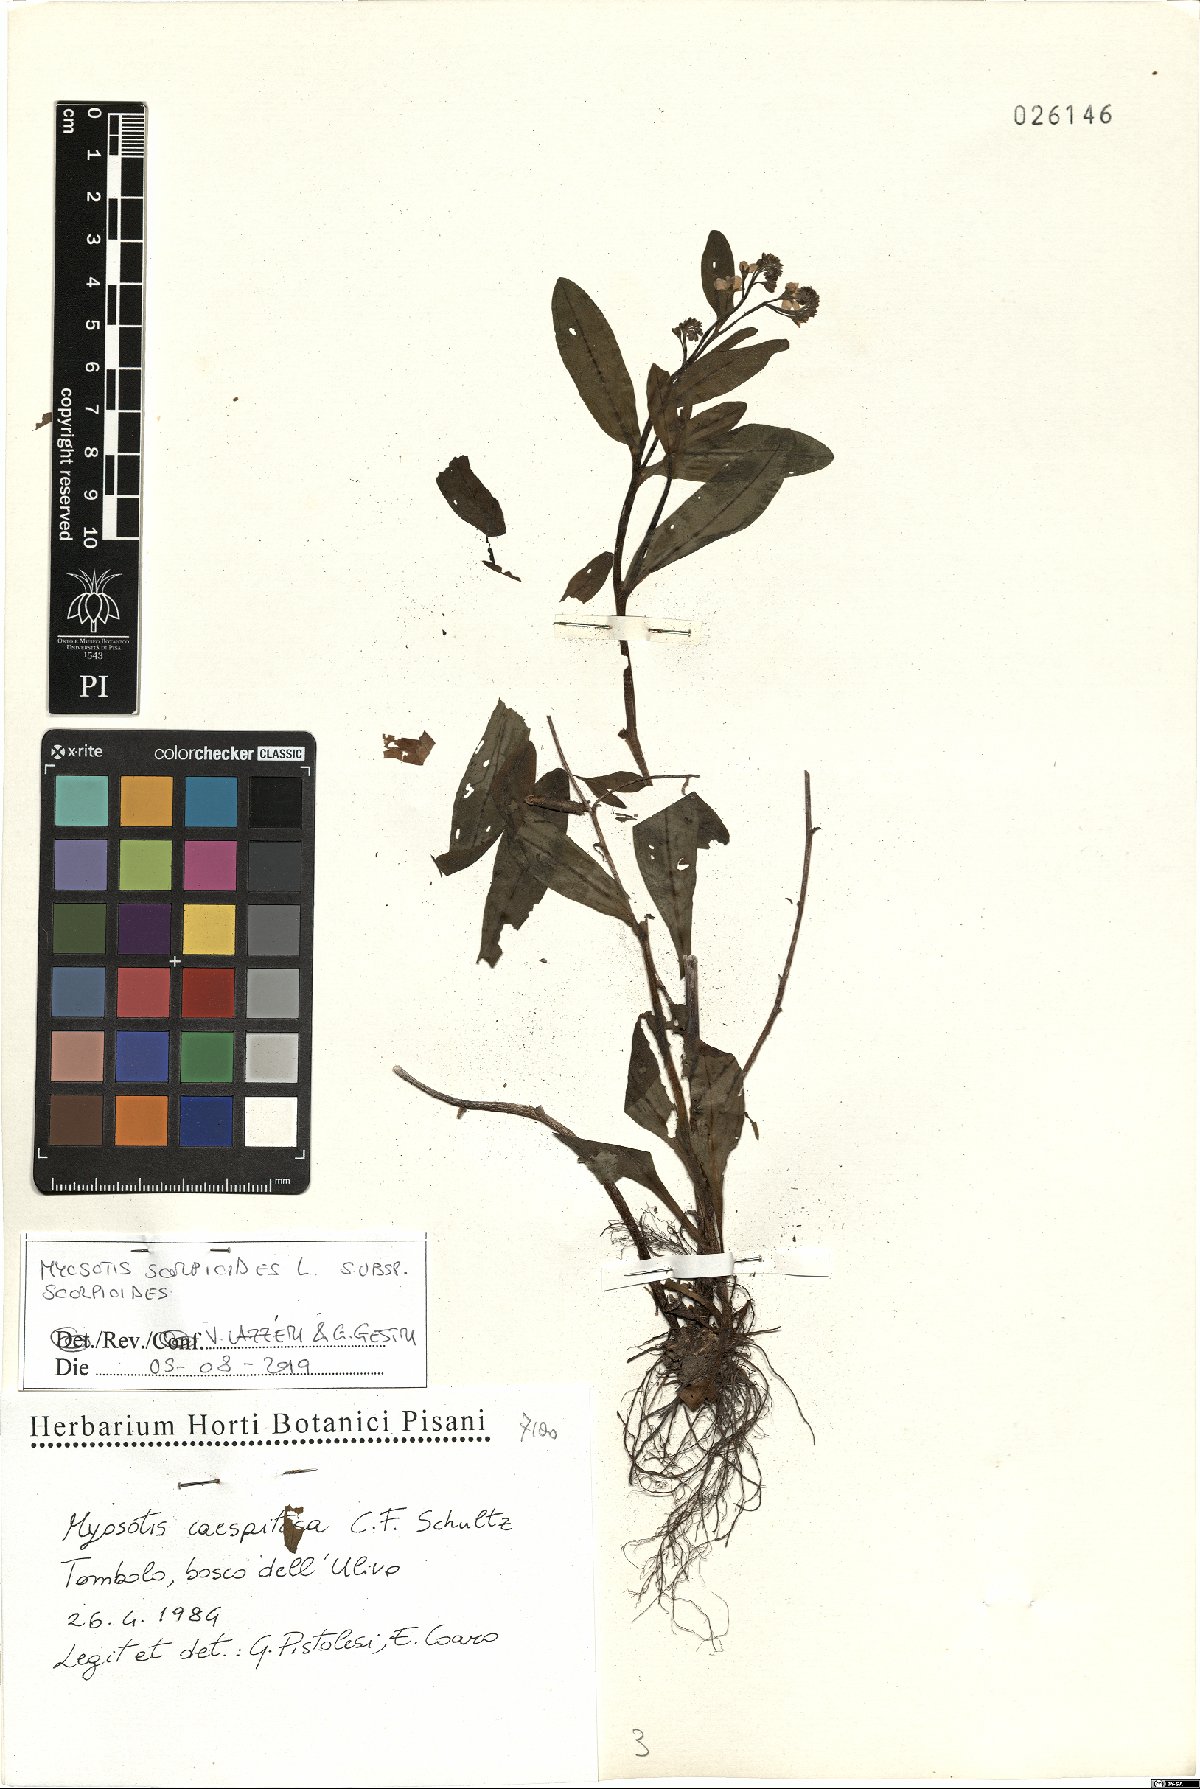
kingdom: Plantae
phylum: Tracheophyta
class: Magnoliopsida
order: Boraginales
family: Boraginaceae
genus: Myosotis
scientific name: Myosotis scorpioides
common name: Water forget-me-not
